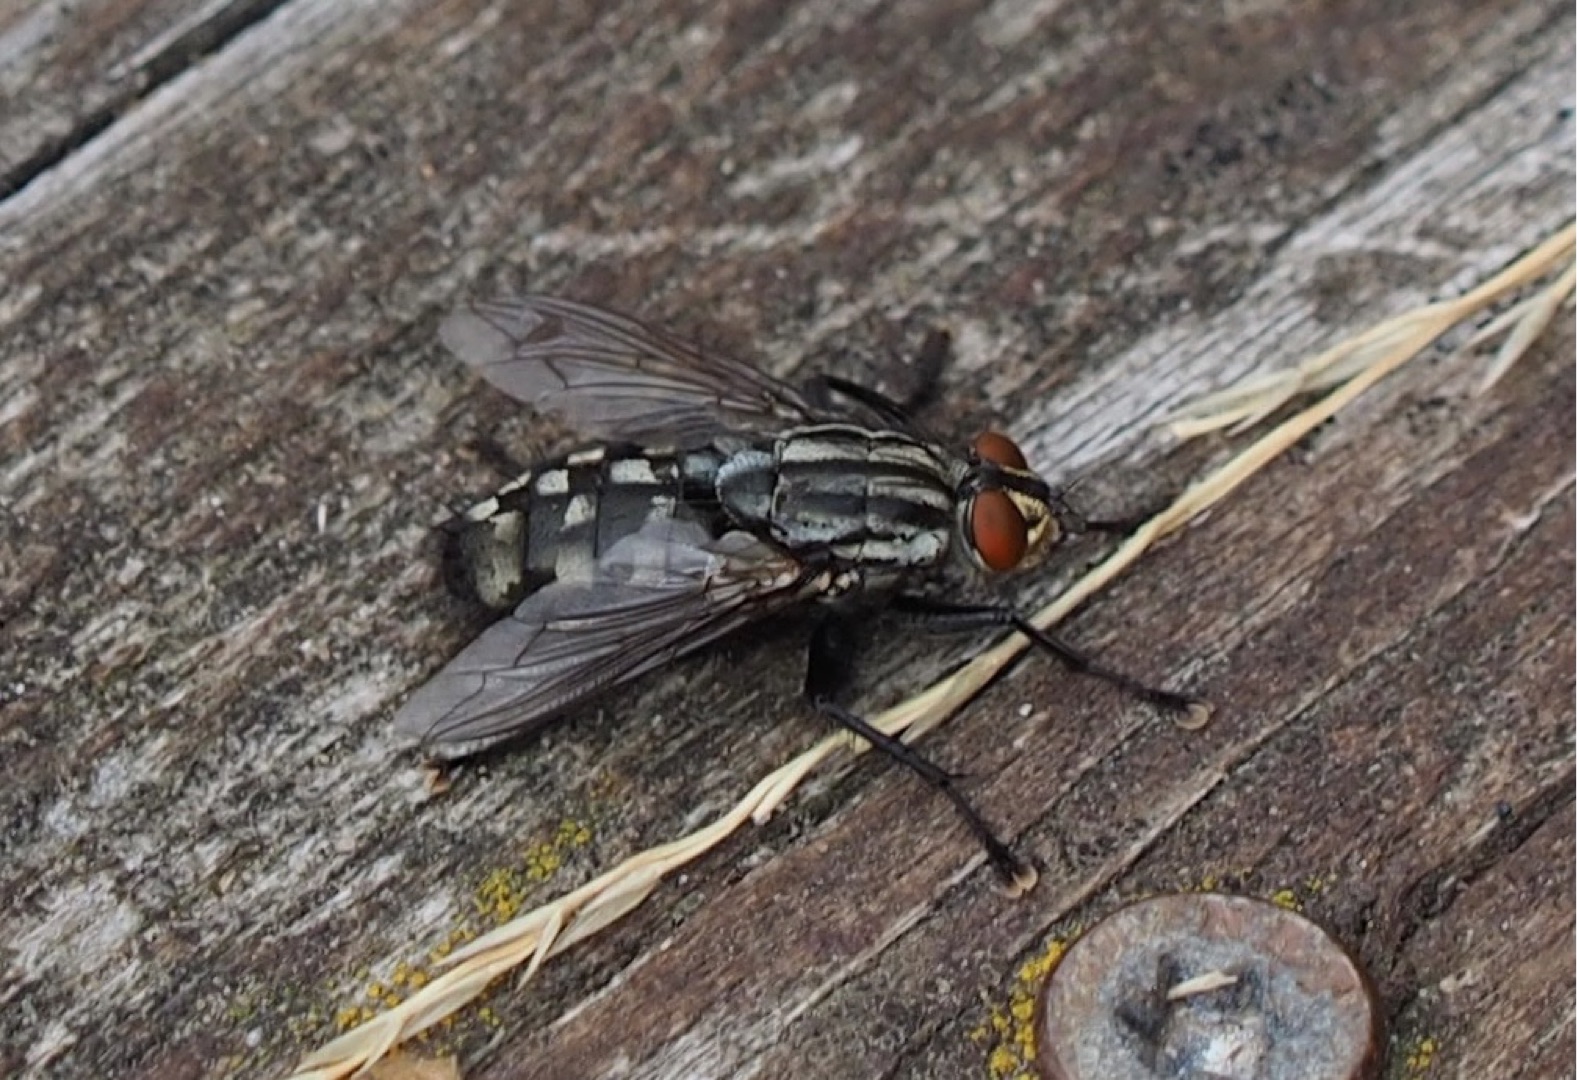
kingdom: Animalia
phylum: Arthropoda
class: Insecta
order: Diptera
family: Sarcophagidae
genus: Sarcophaga
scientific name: Sarcophaga
